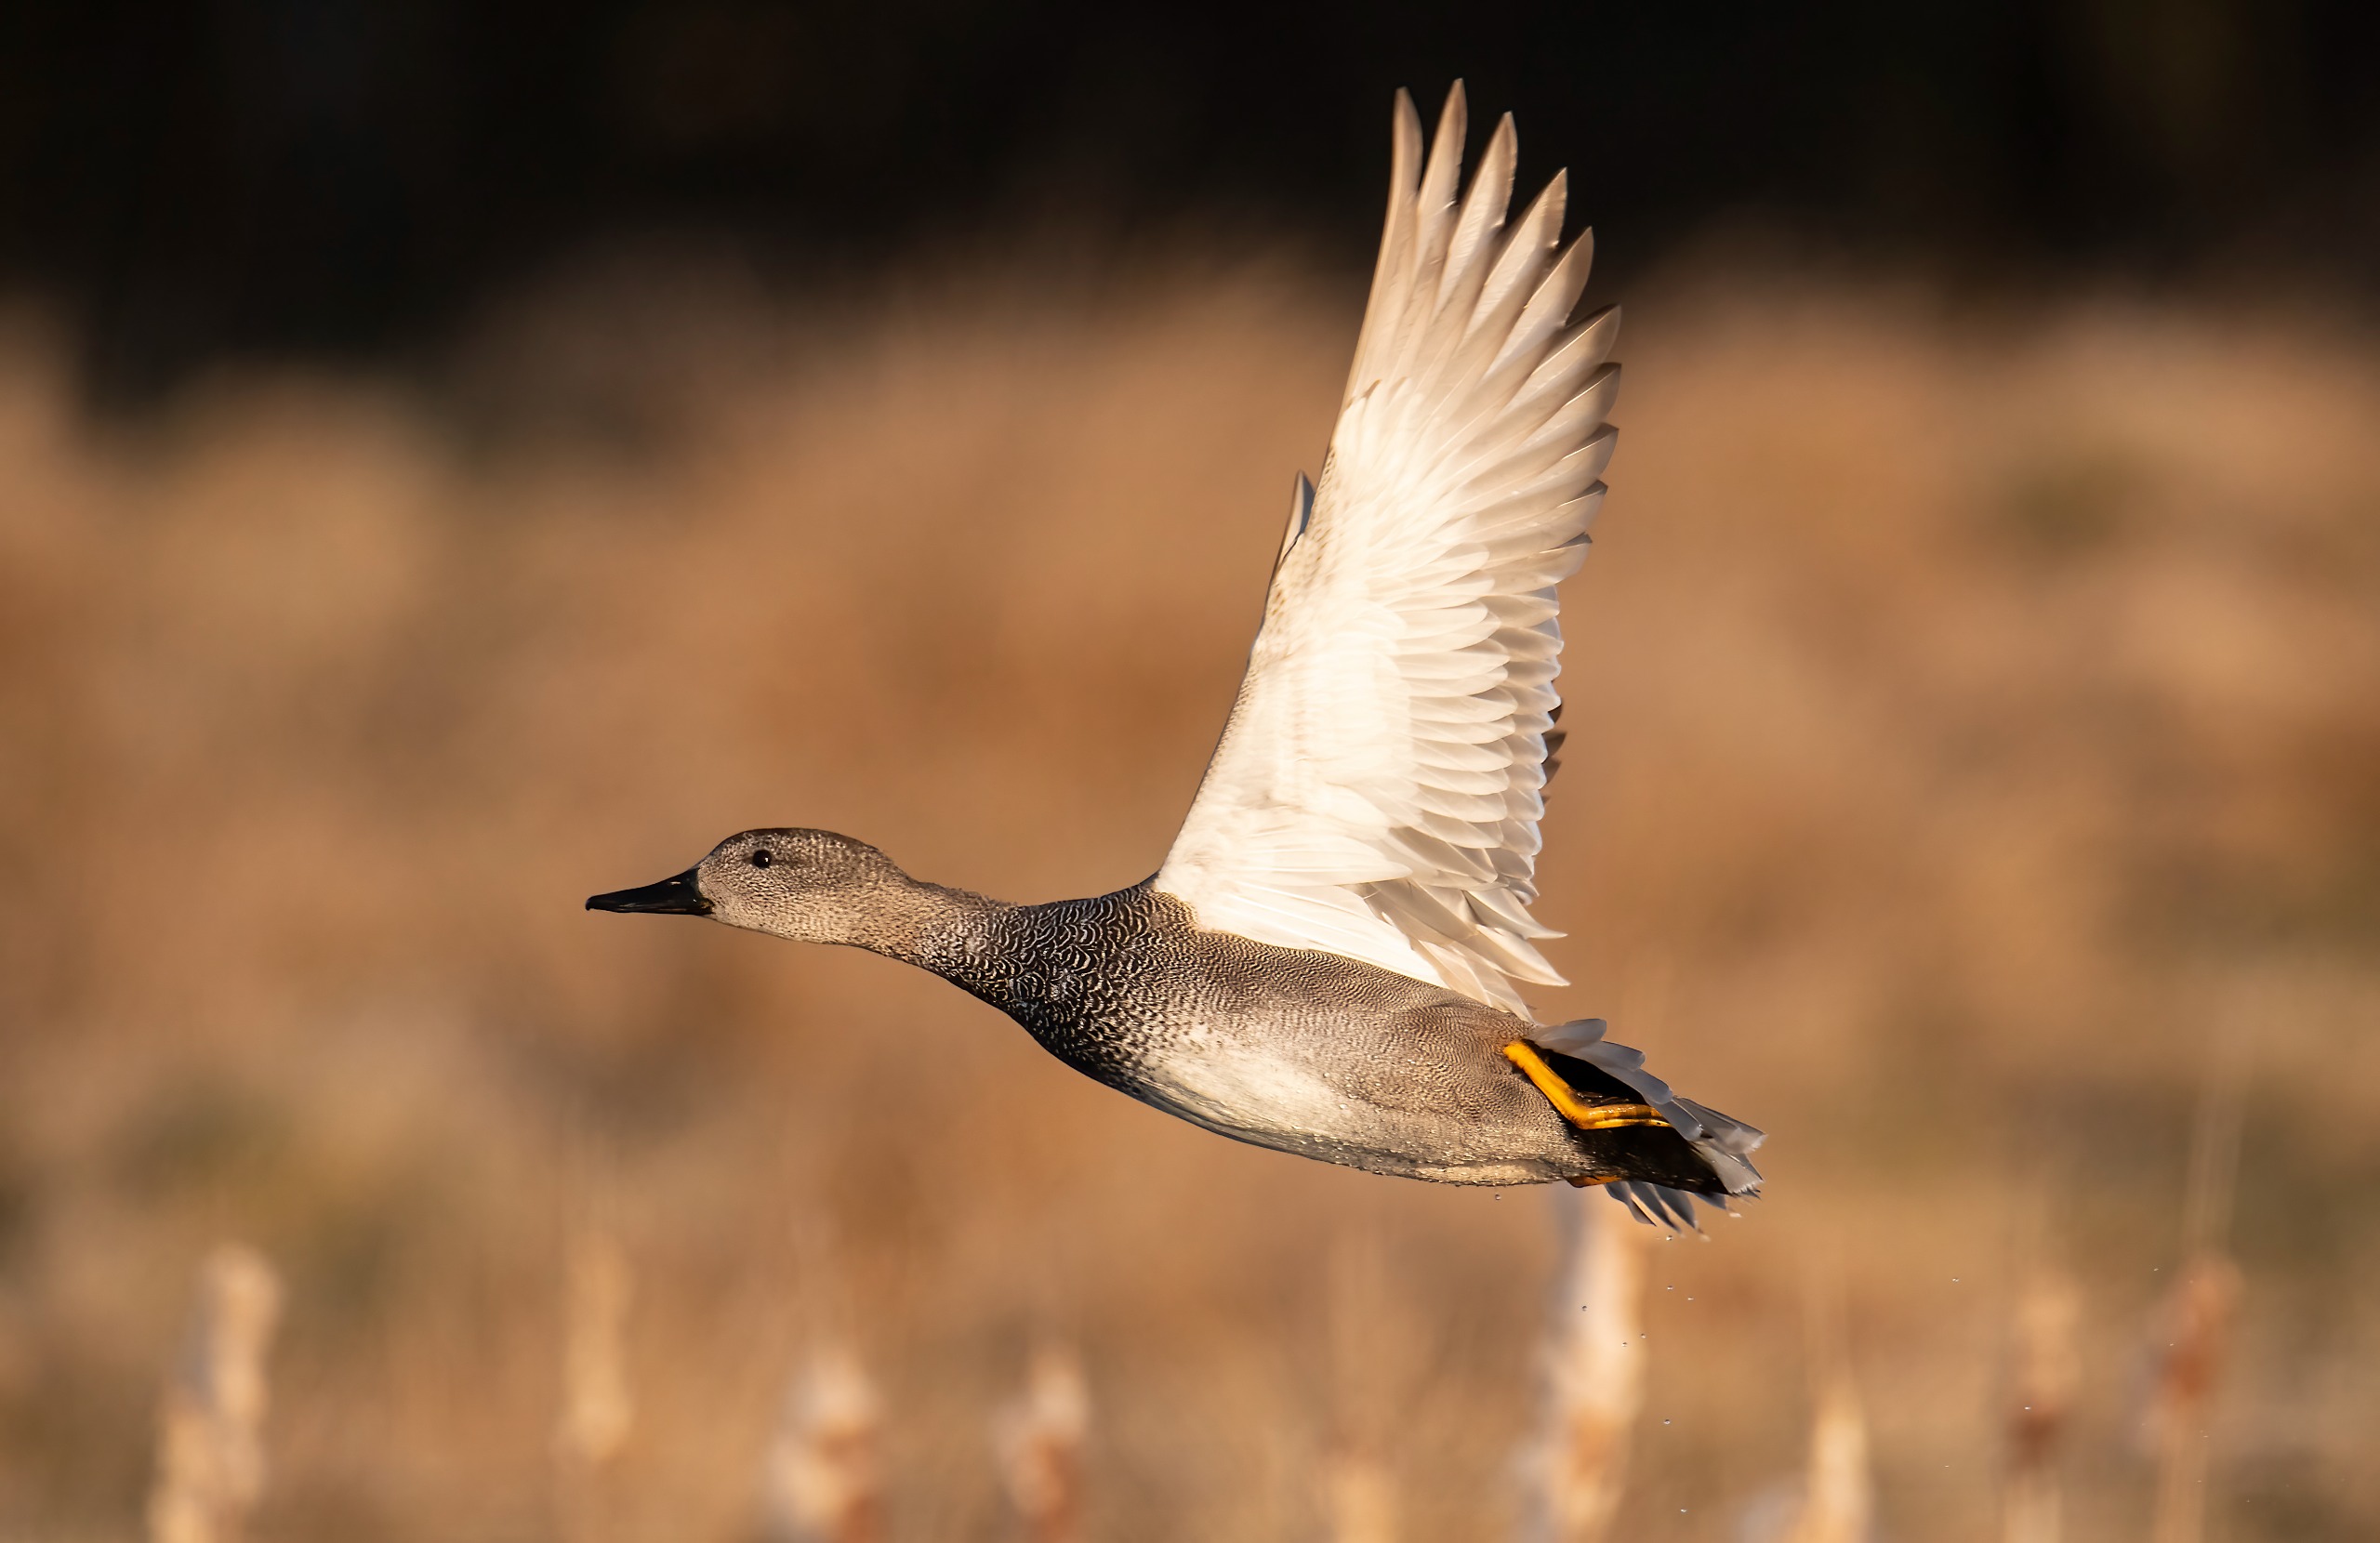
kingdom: Animalia
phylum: Chordata
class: Aves
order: Anseriformes
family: Anatidae
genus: Mareca
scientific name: Mareca strepera
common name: Knarand
